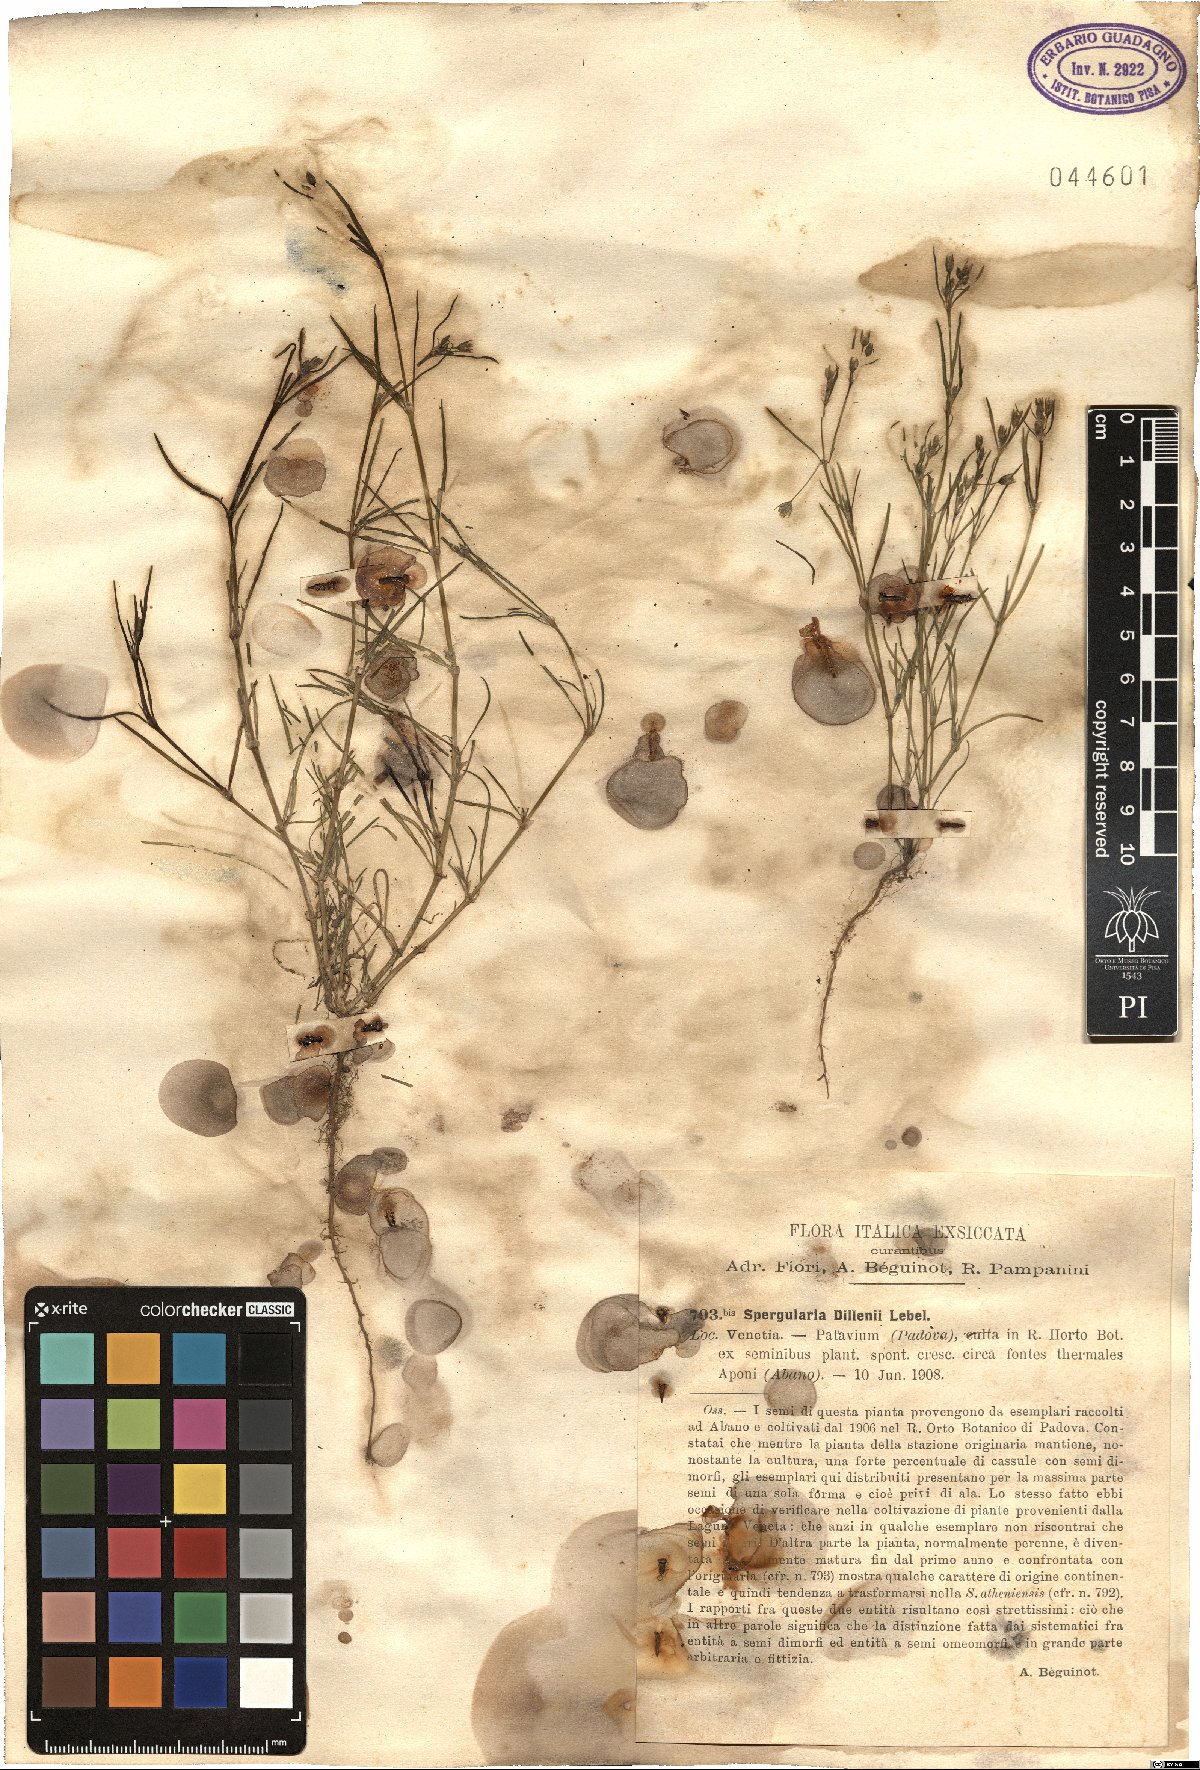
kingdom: Plantae
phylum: Tracheophyta
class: Magnoliopsida
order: Caryophyllales
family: Caryophyllaceae
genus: Spergularia
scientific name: Spergularia marina
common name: Lesser sea-spurrey
